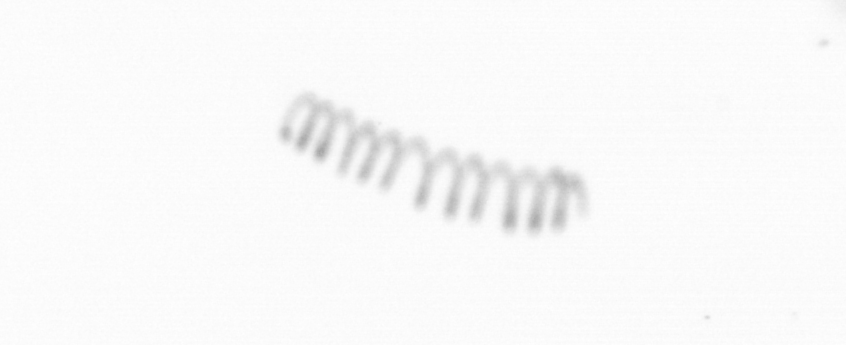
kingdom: Chromista
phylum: Ochrophyta
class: Bacillariophyceae
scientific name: Bacillariophyceae
